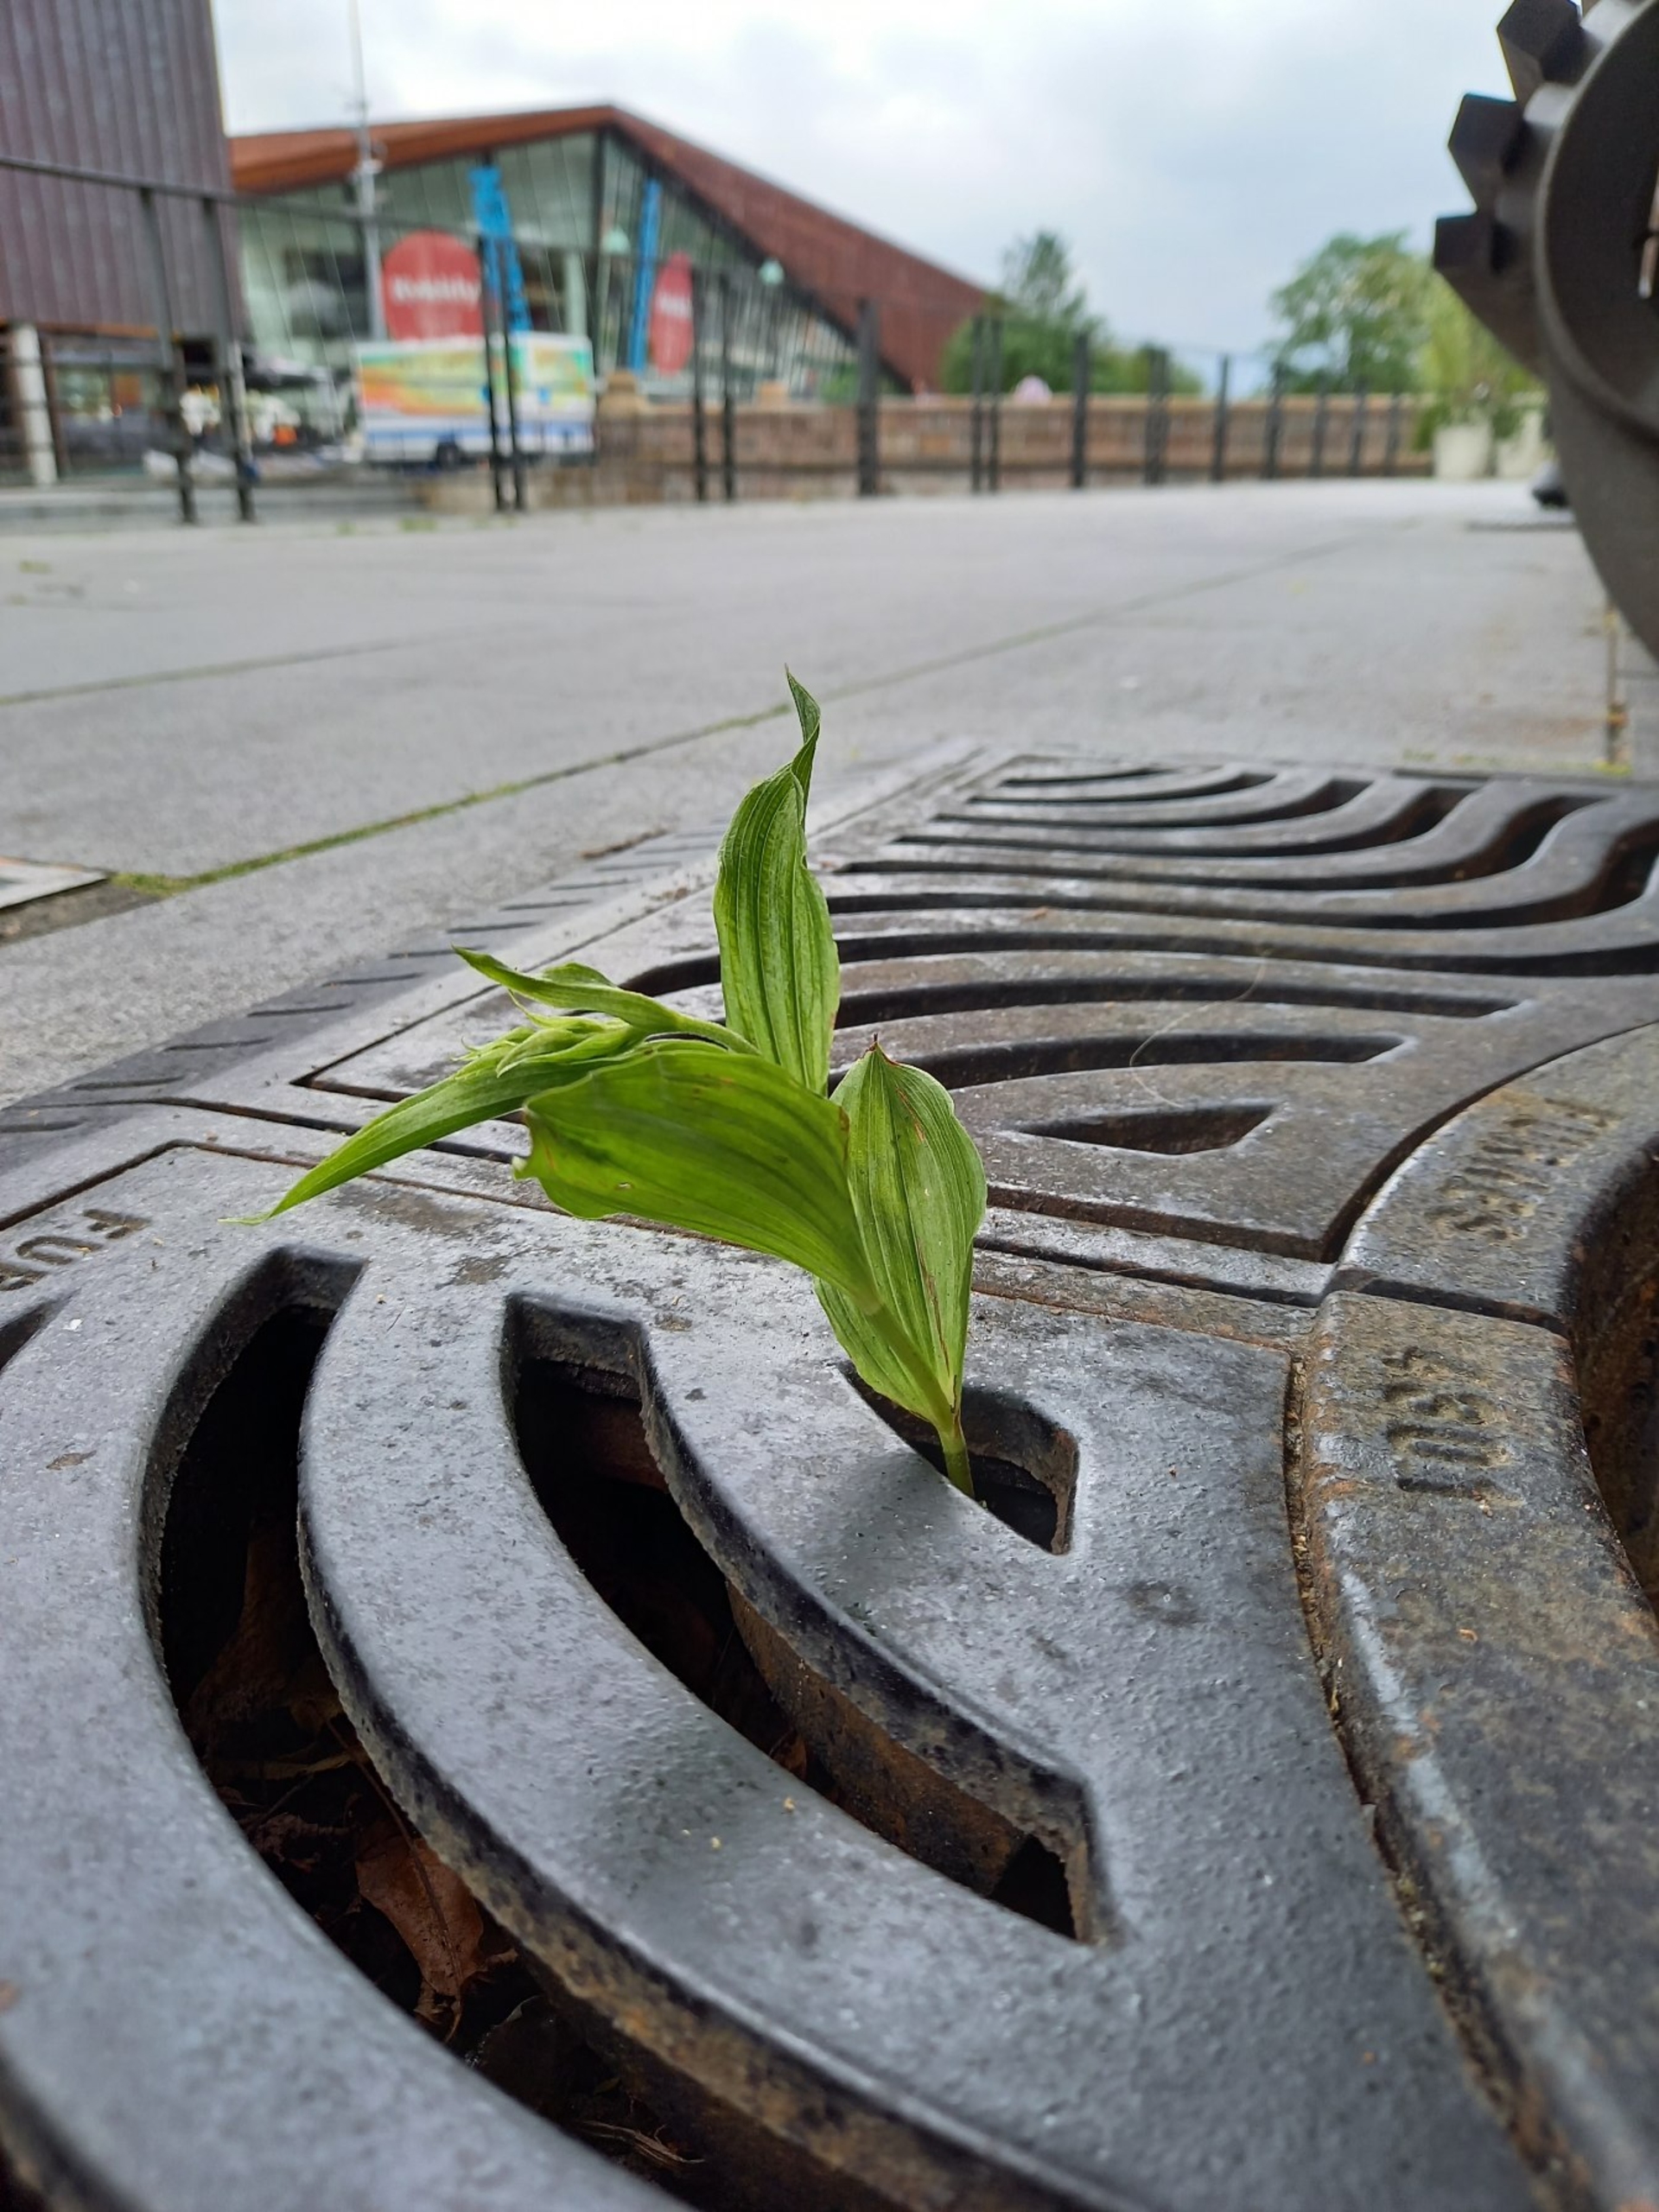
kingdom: Plantae
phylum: Tracheophyta
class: Liliopsida
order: Asparagales
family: Orchidaceae
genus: Epipactis
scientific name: Epipactis helleborine
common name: Skov-hullæbe
